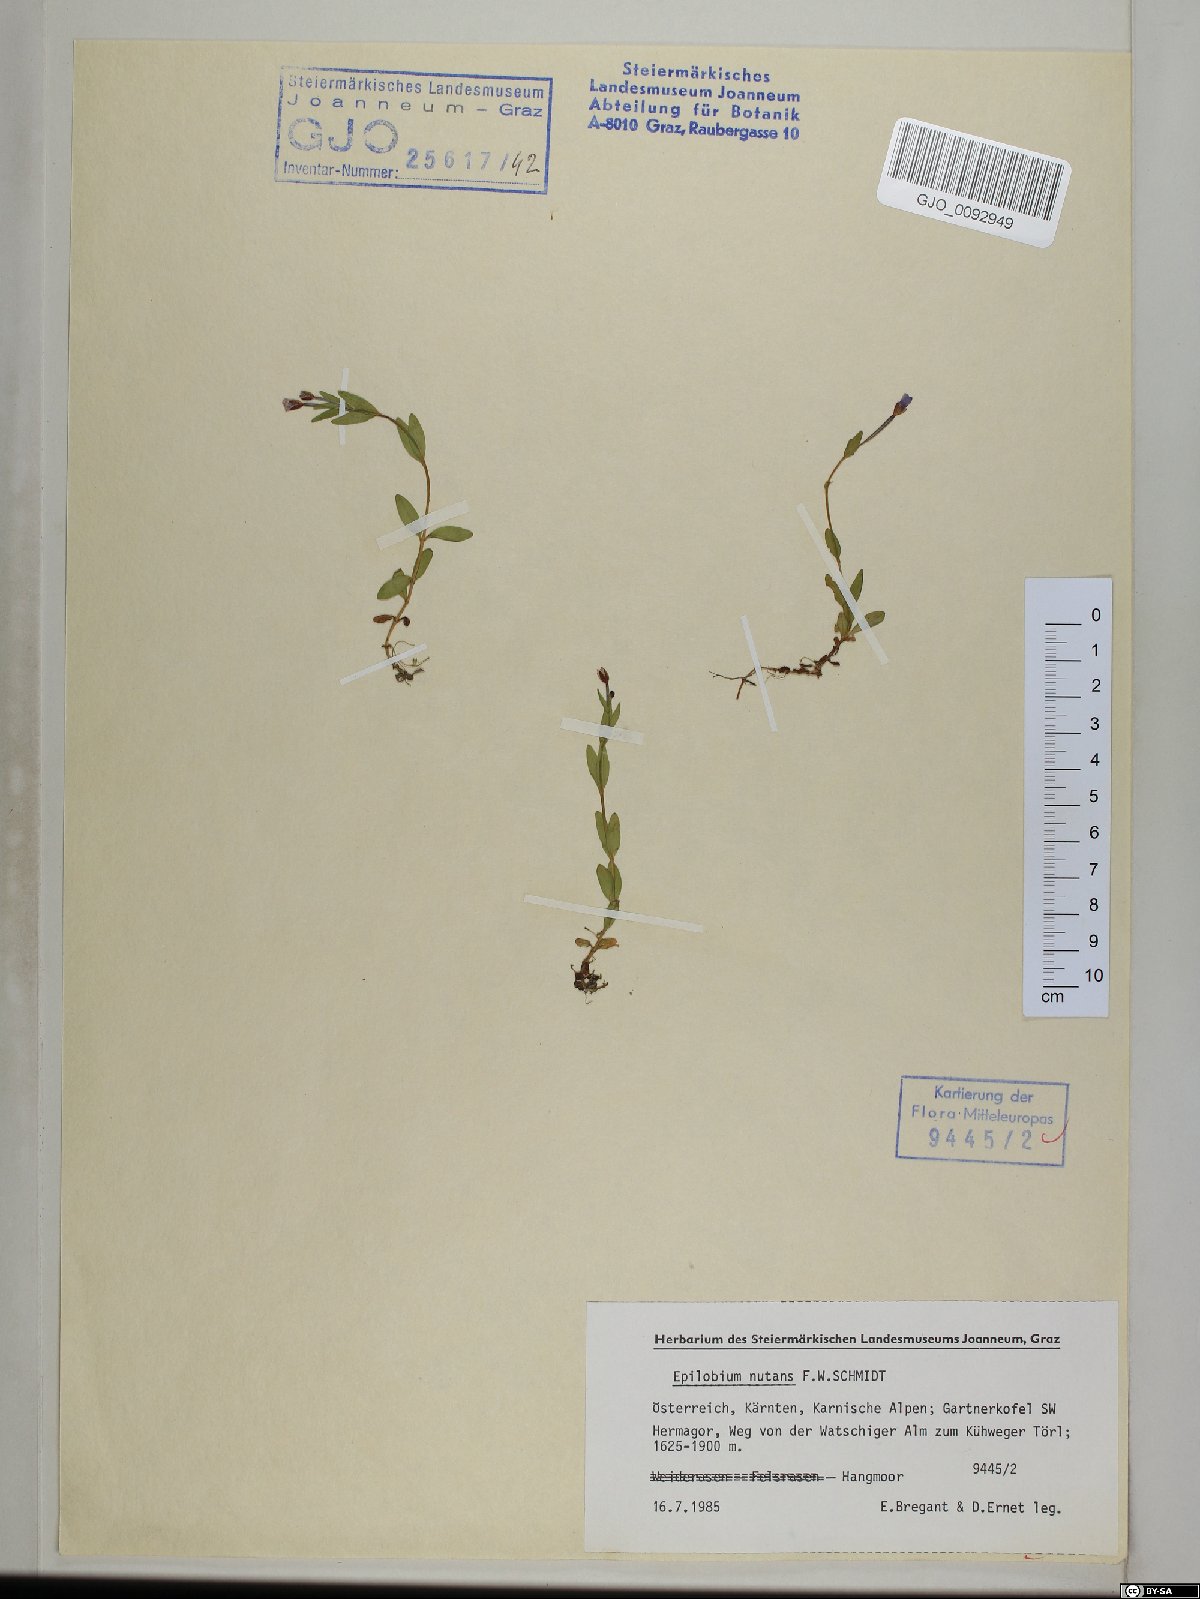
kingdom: Plantae
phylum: Tracheophyta
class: Magnoliopsida
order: Myrtales
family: Onagraceae
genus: Epilobium
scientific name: Epilobium nutans
